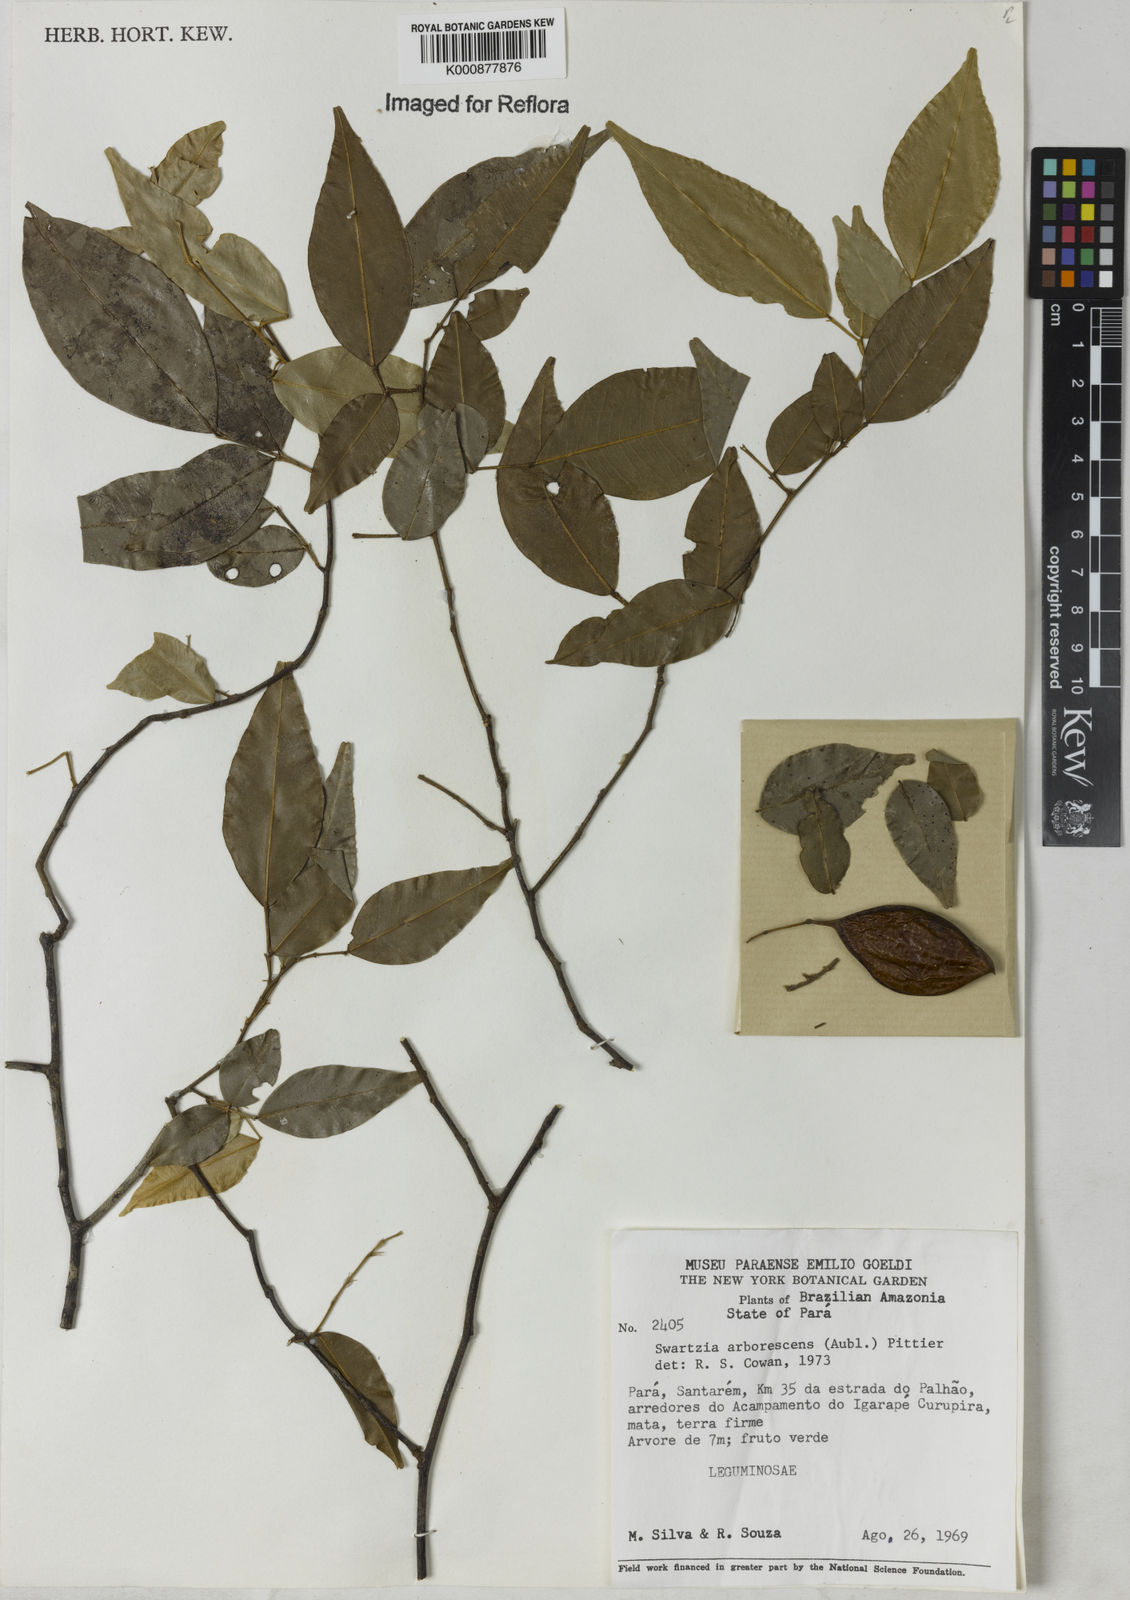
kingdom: Plantae
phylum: Tracheophyta
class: Magnoliopsida
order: Fabales
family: Fabaceae
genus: Swartzia
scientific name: Swartzia arborescens
